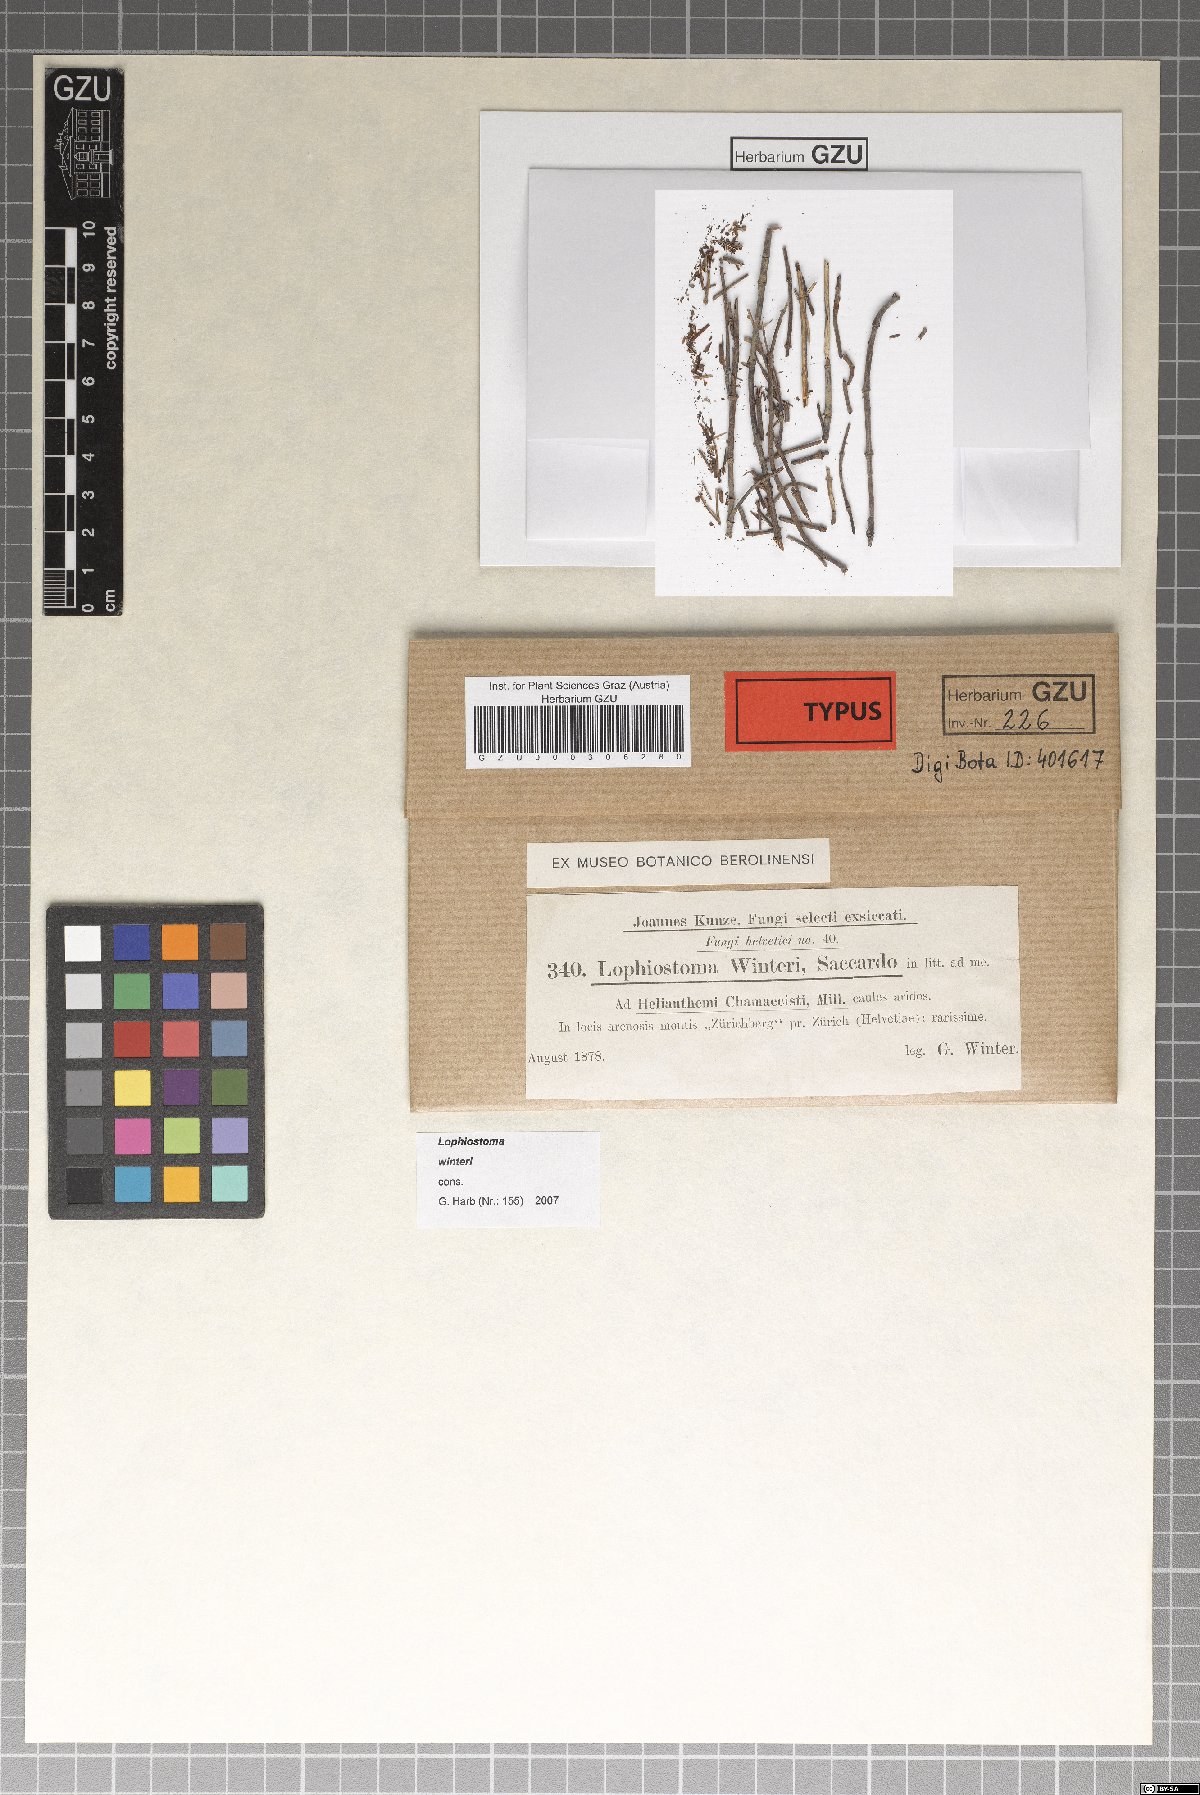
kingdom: Fungi
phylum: Ascomycota
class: Dothideomycetes
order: Pleosporales
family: Lophiostomataceae
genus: Lophiopoacea
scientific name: Lophiopoacea winteri
